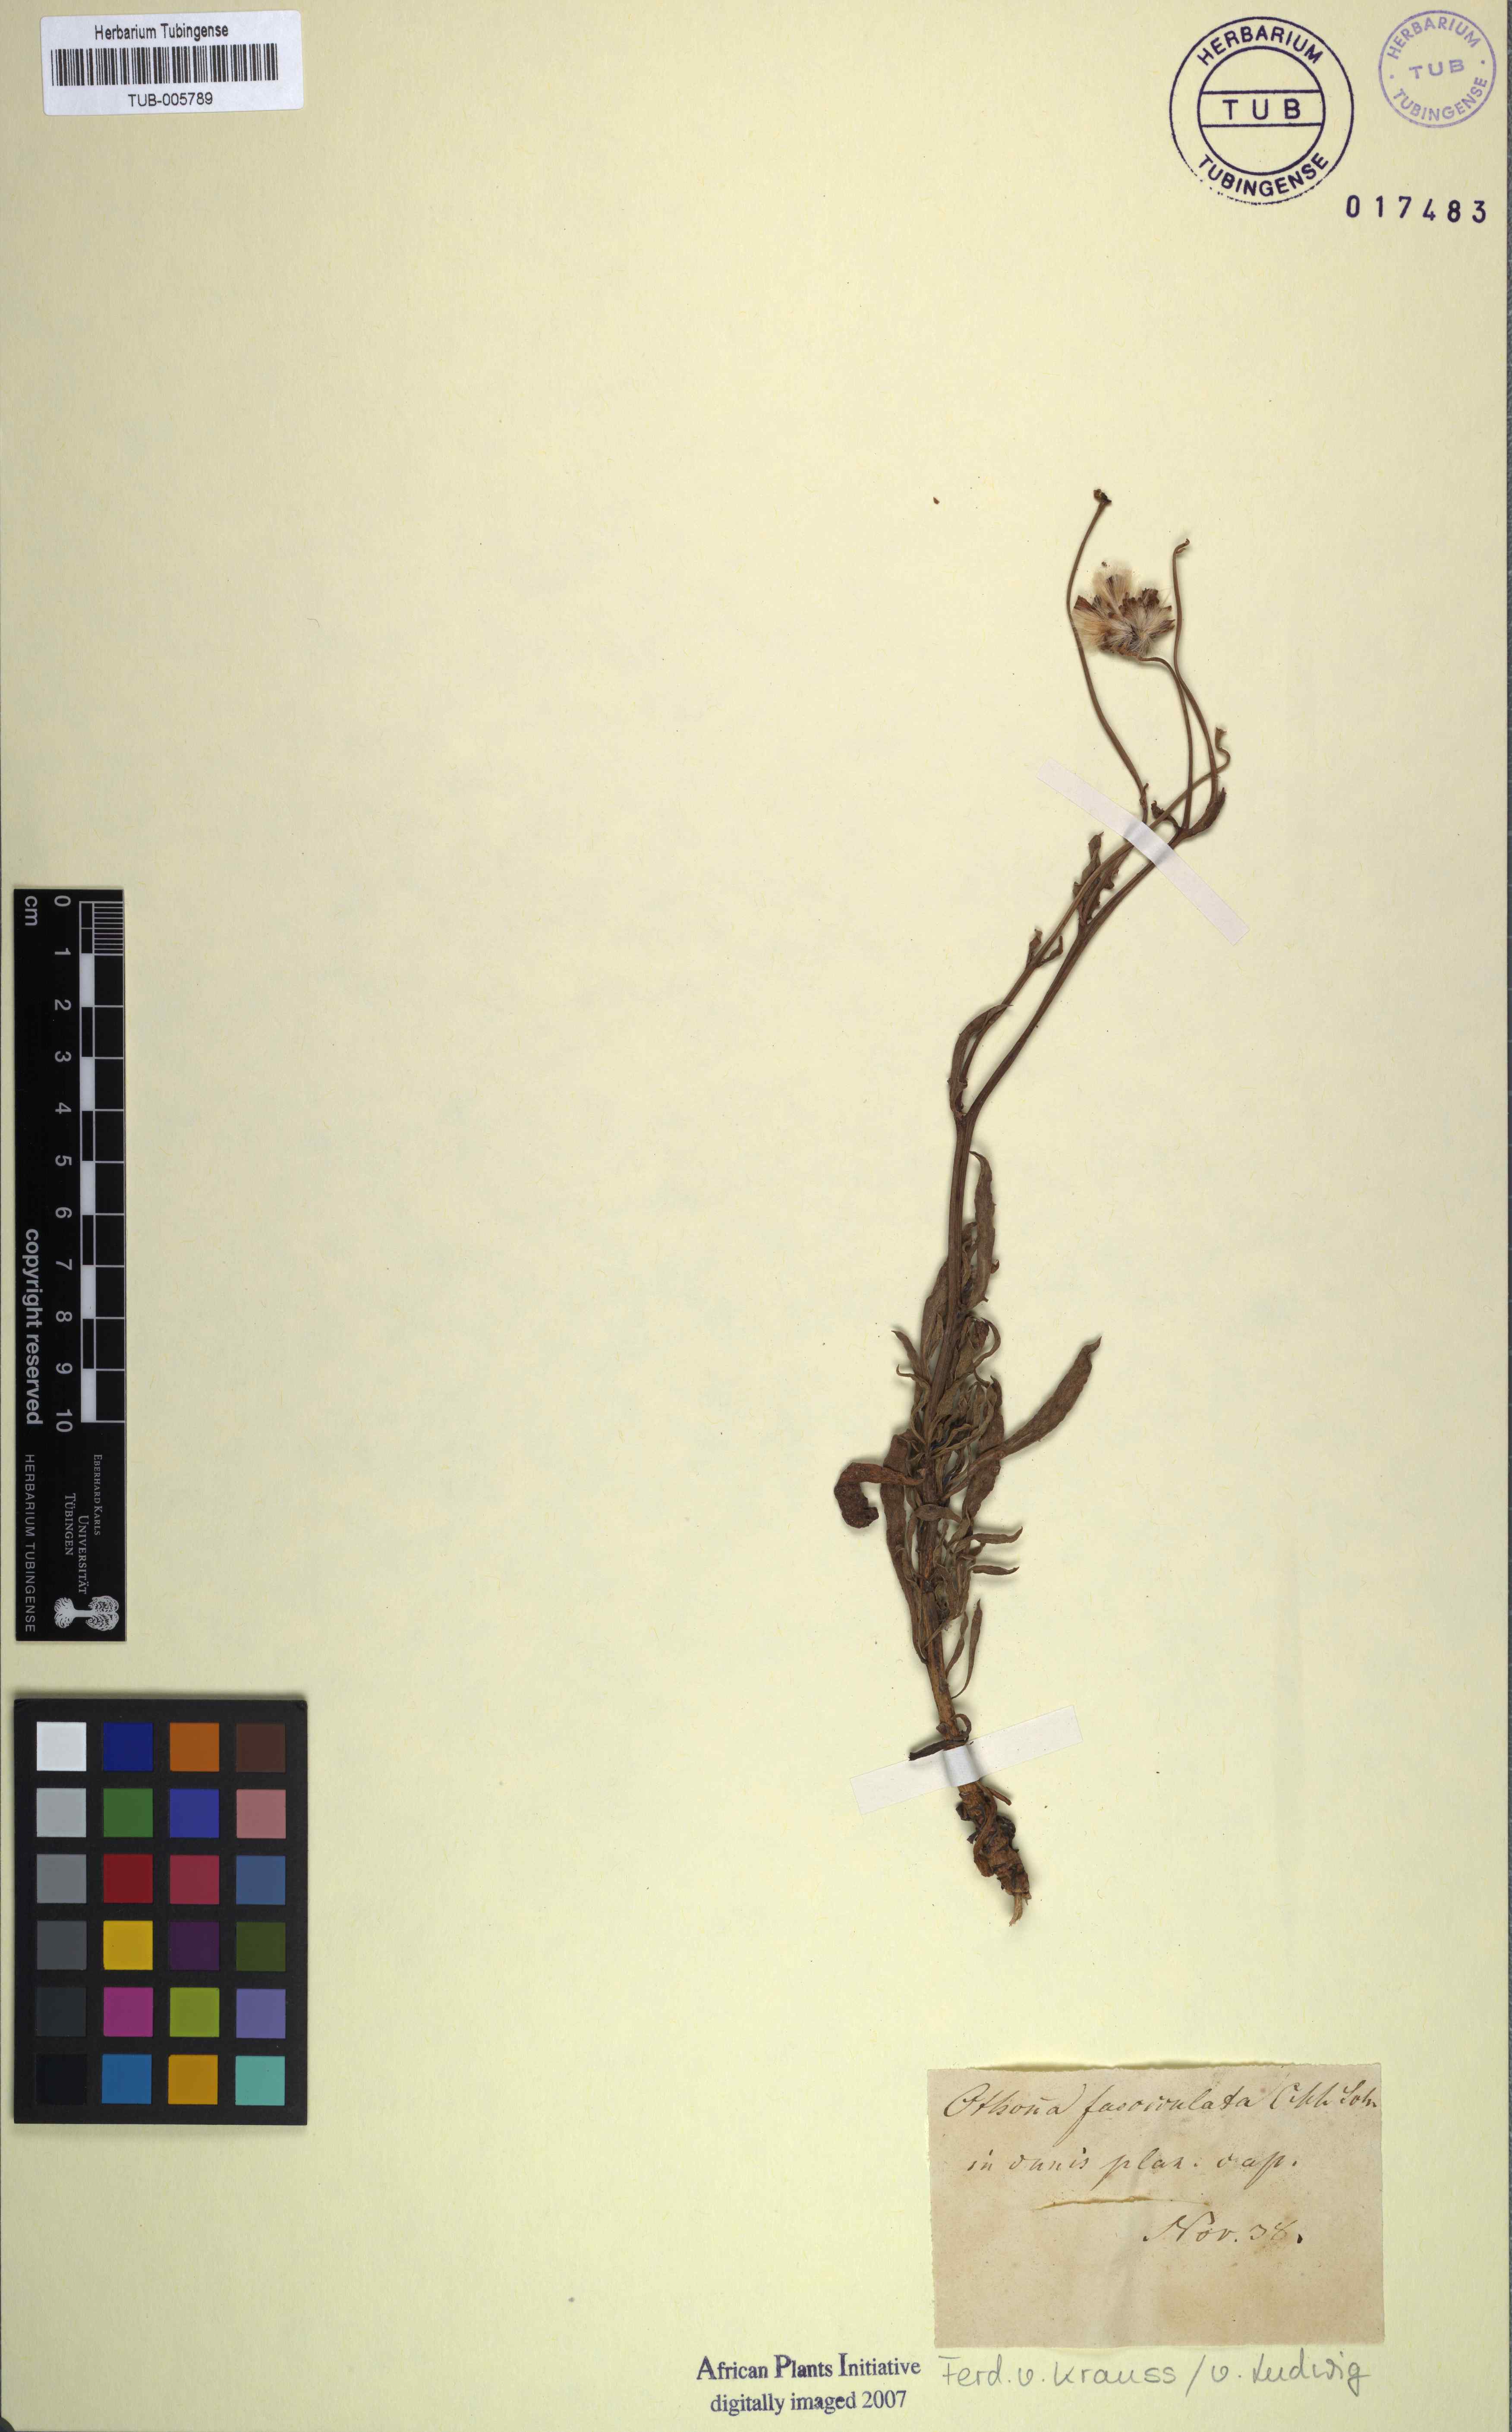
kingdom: Plantae
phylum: Tracheophyta
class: Magnoliopsida
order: Asterales
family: Asteraceae
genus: Othonna
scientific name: Othonna
